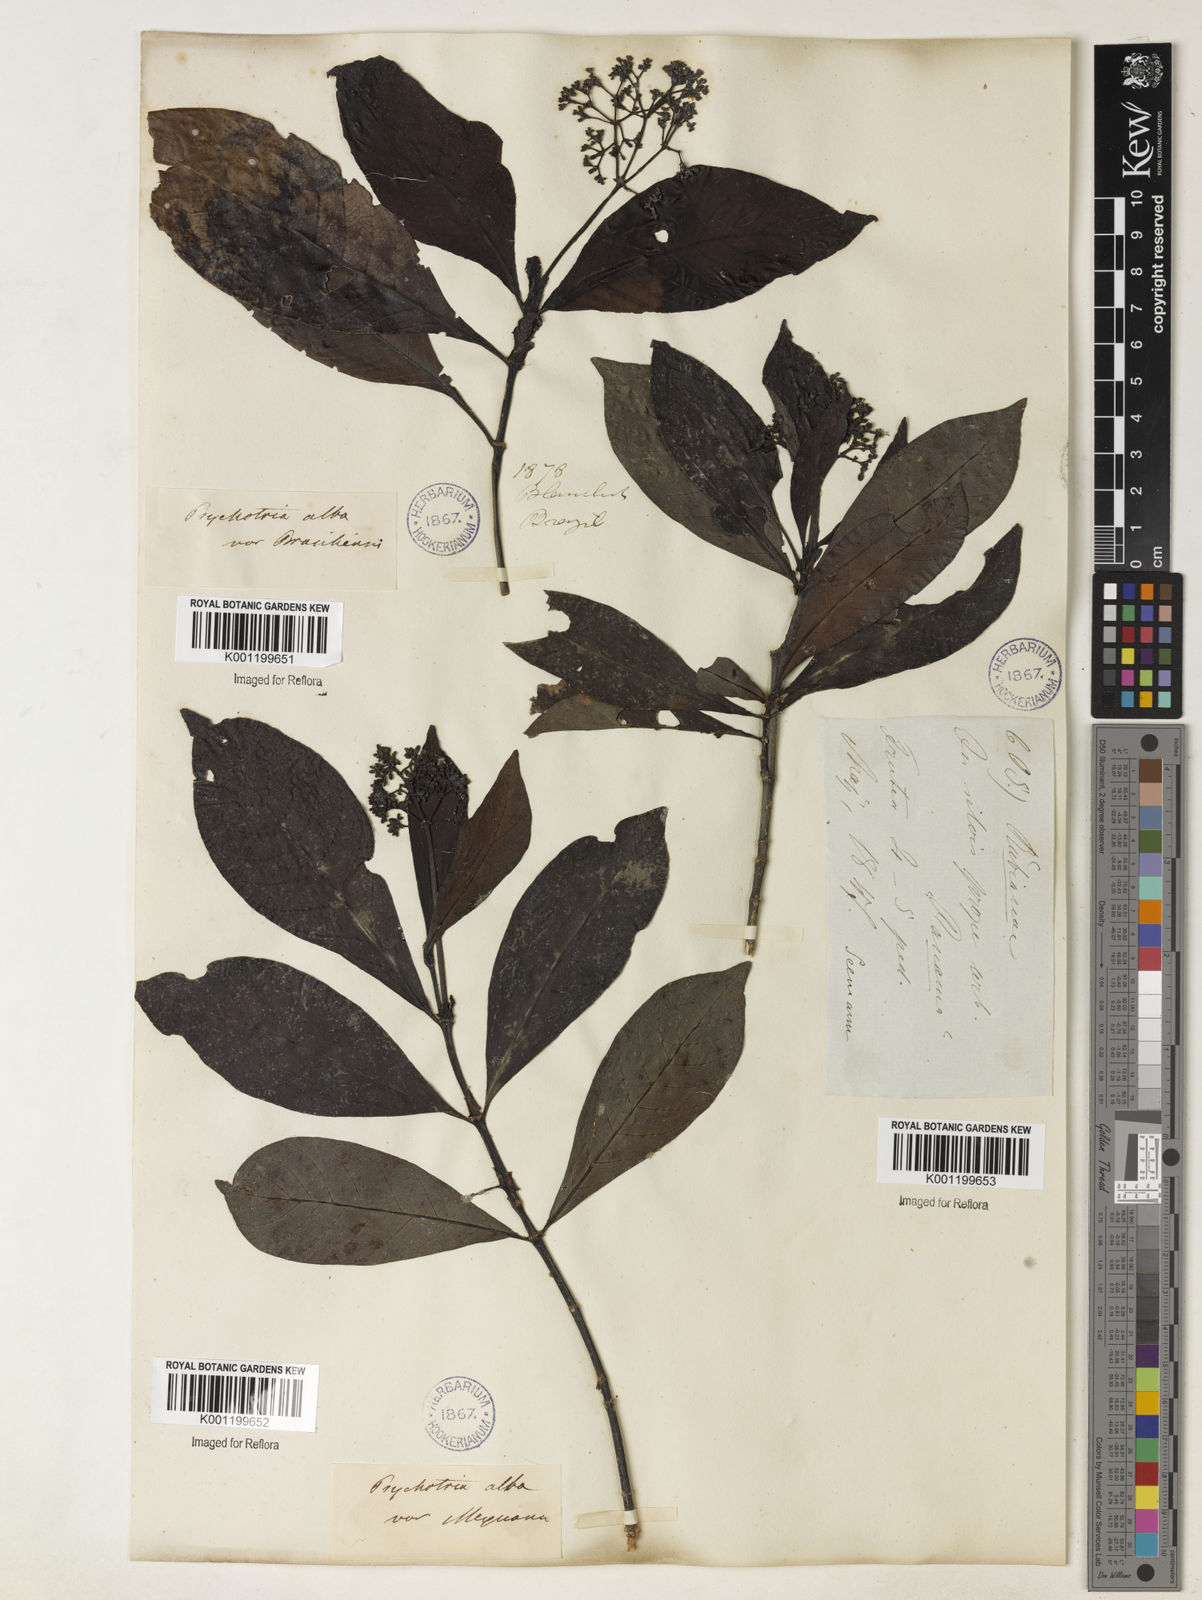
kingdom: Plantae
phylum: Tracheophyta
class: Magnoliopsida
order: Gentianales
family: Rubiaceae
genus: Psychotria
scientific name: Psychotria carthagenensis
